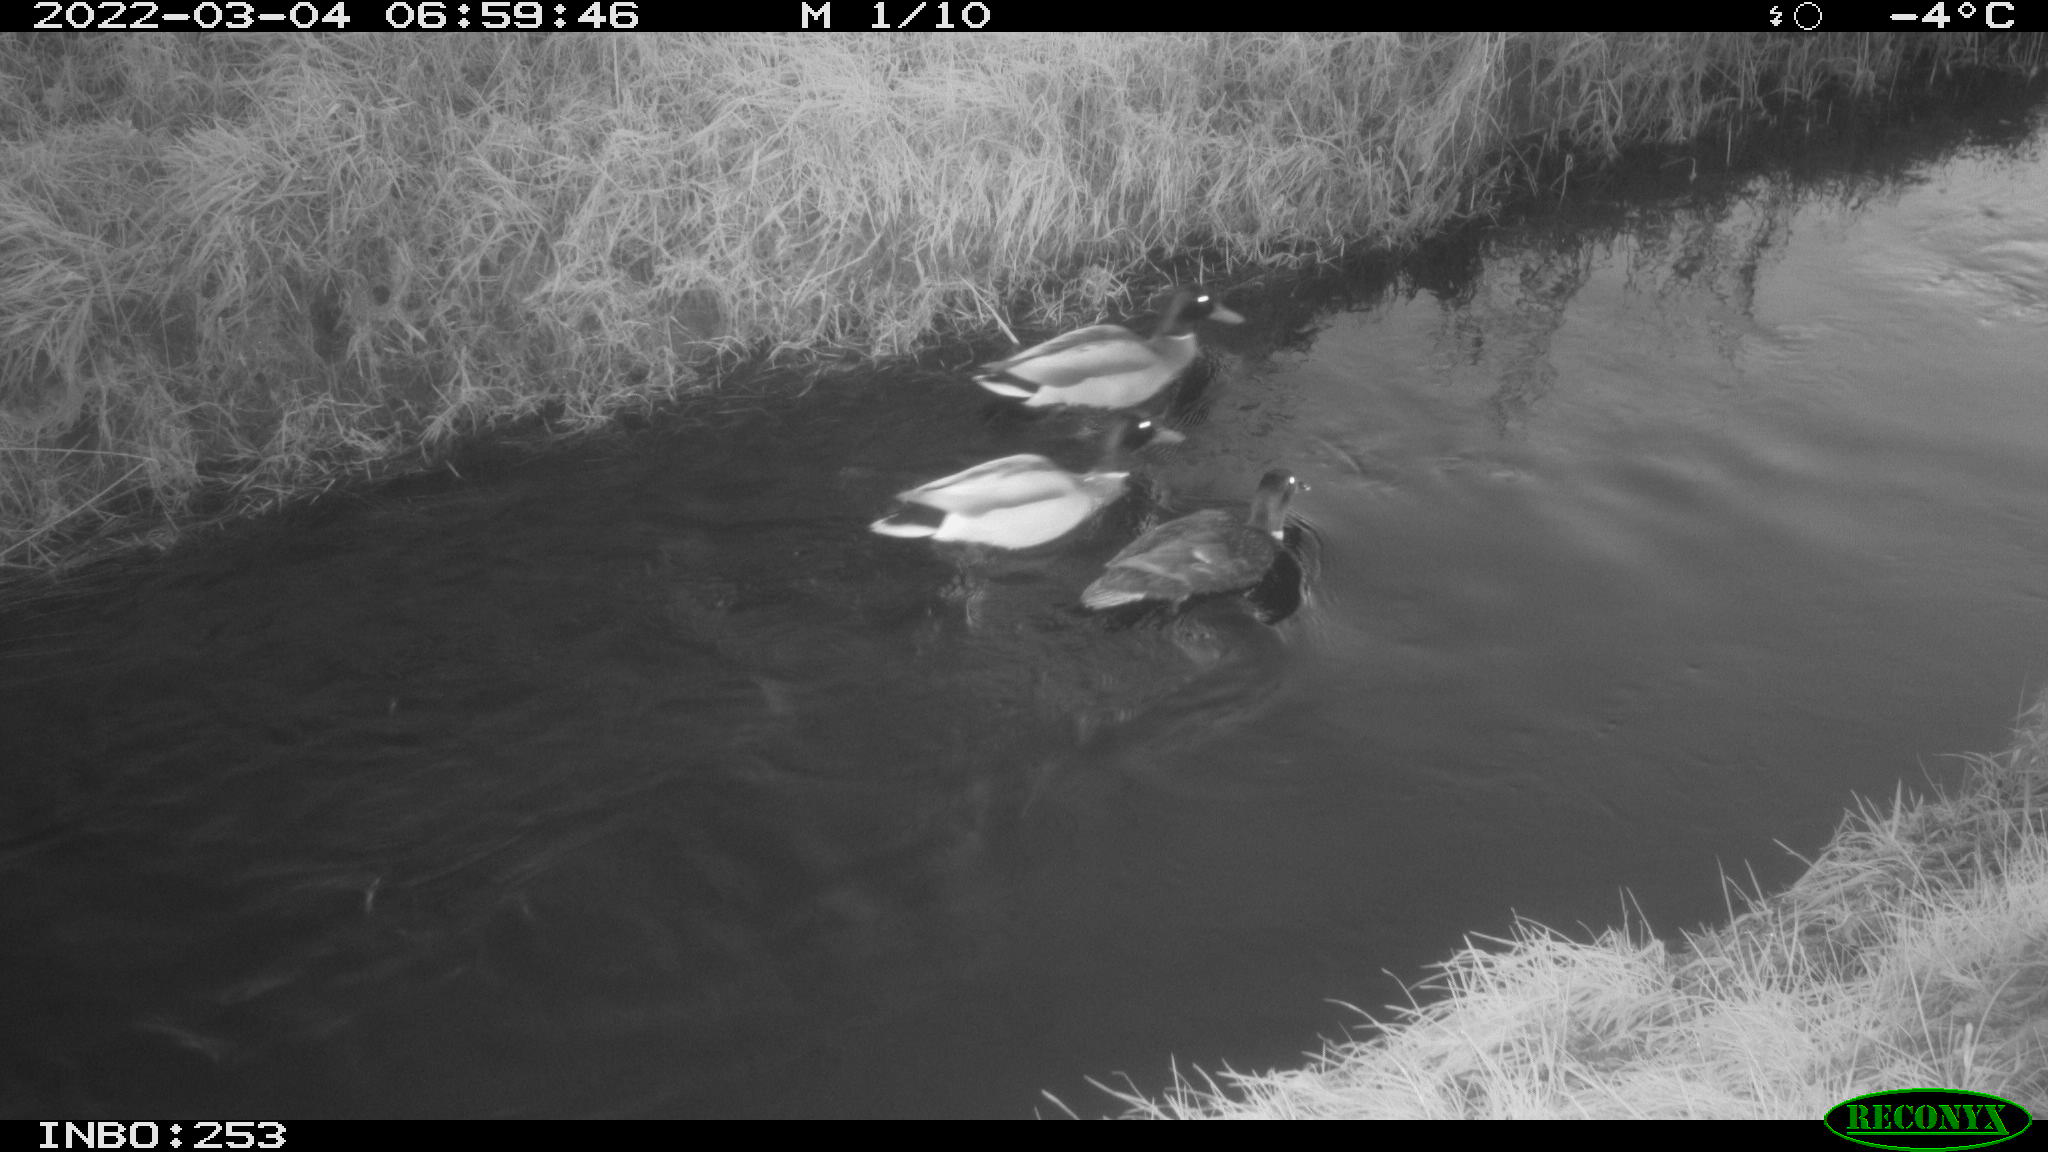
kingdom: Animalia
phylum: Chordata
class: Aves
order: Anseriformes
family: Anatidae
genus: Anas
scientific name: Anas platyrhynchos
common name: Mallard
